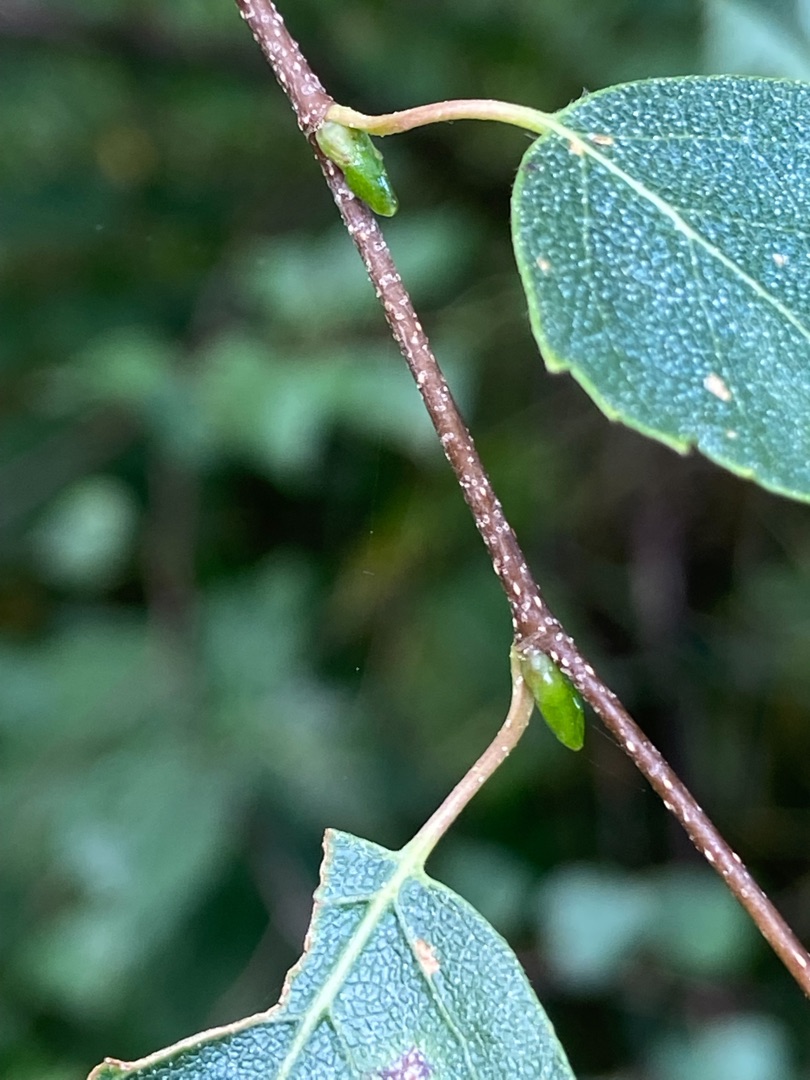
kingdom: Plantae
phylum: Tracheophyta
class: Magnoliopsida
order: Fagales
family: Betulaceae
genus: Betula
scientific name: Betula pendula
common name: Vorte-birk
